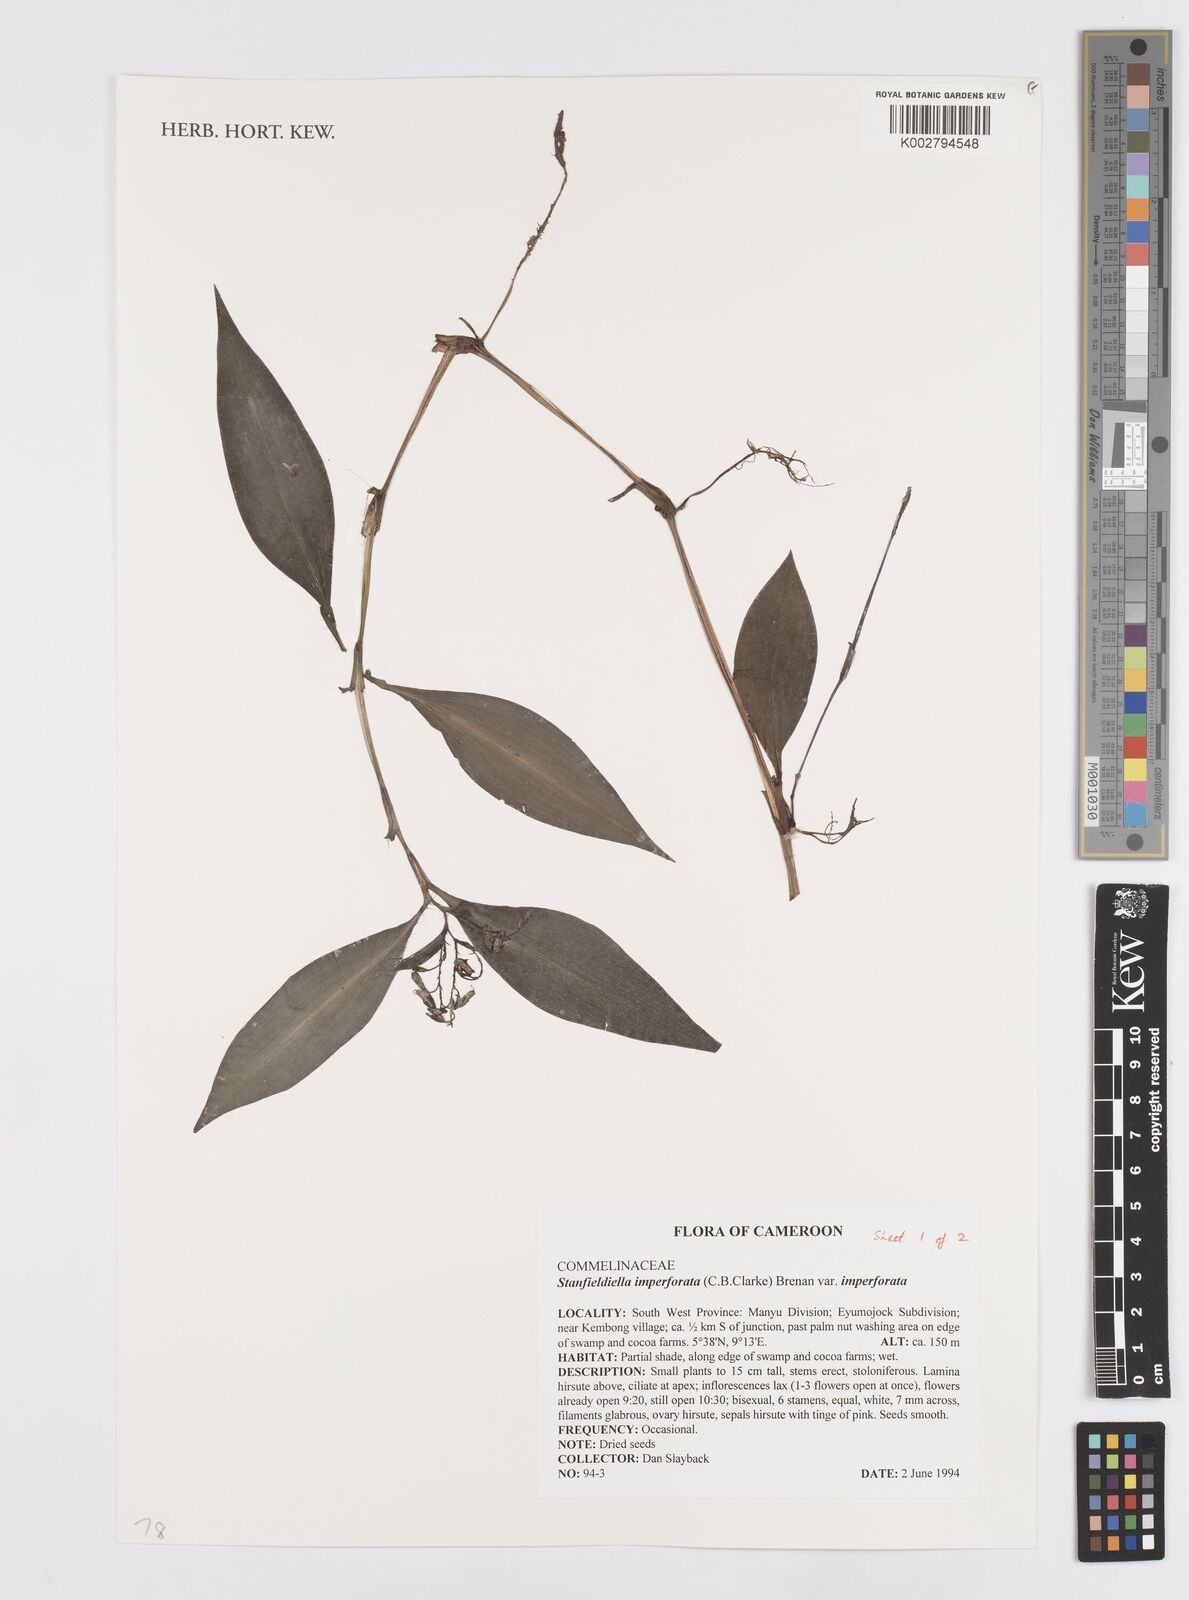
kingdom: Plantae
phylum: Tracheophyta
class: Liliopsida
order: Commelinales
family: Commelinaceae
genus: Stanfieldiella
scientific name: Stanfieldiella imperforata
